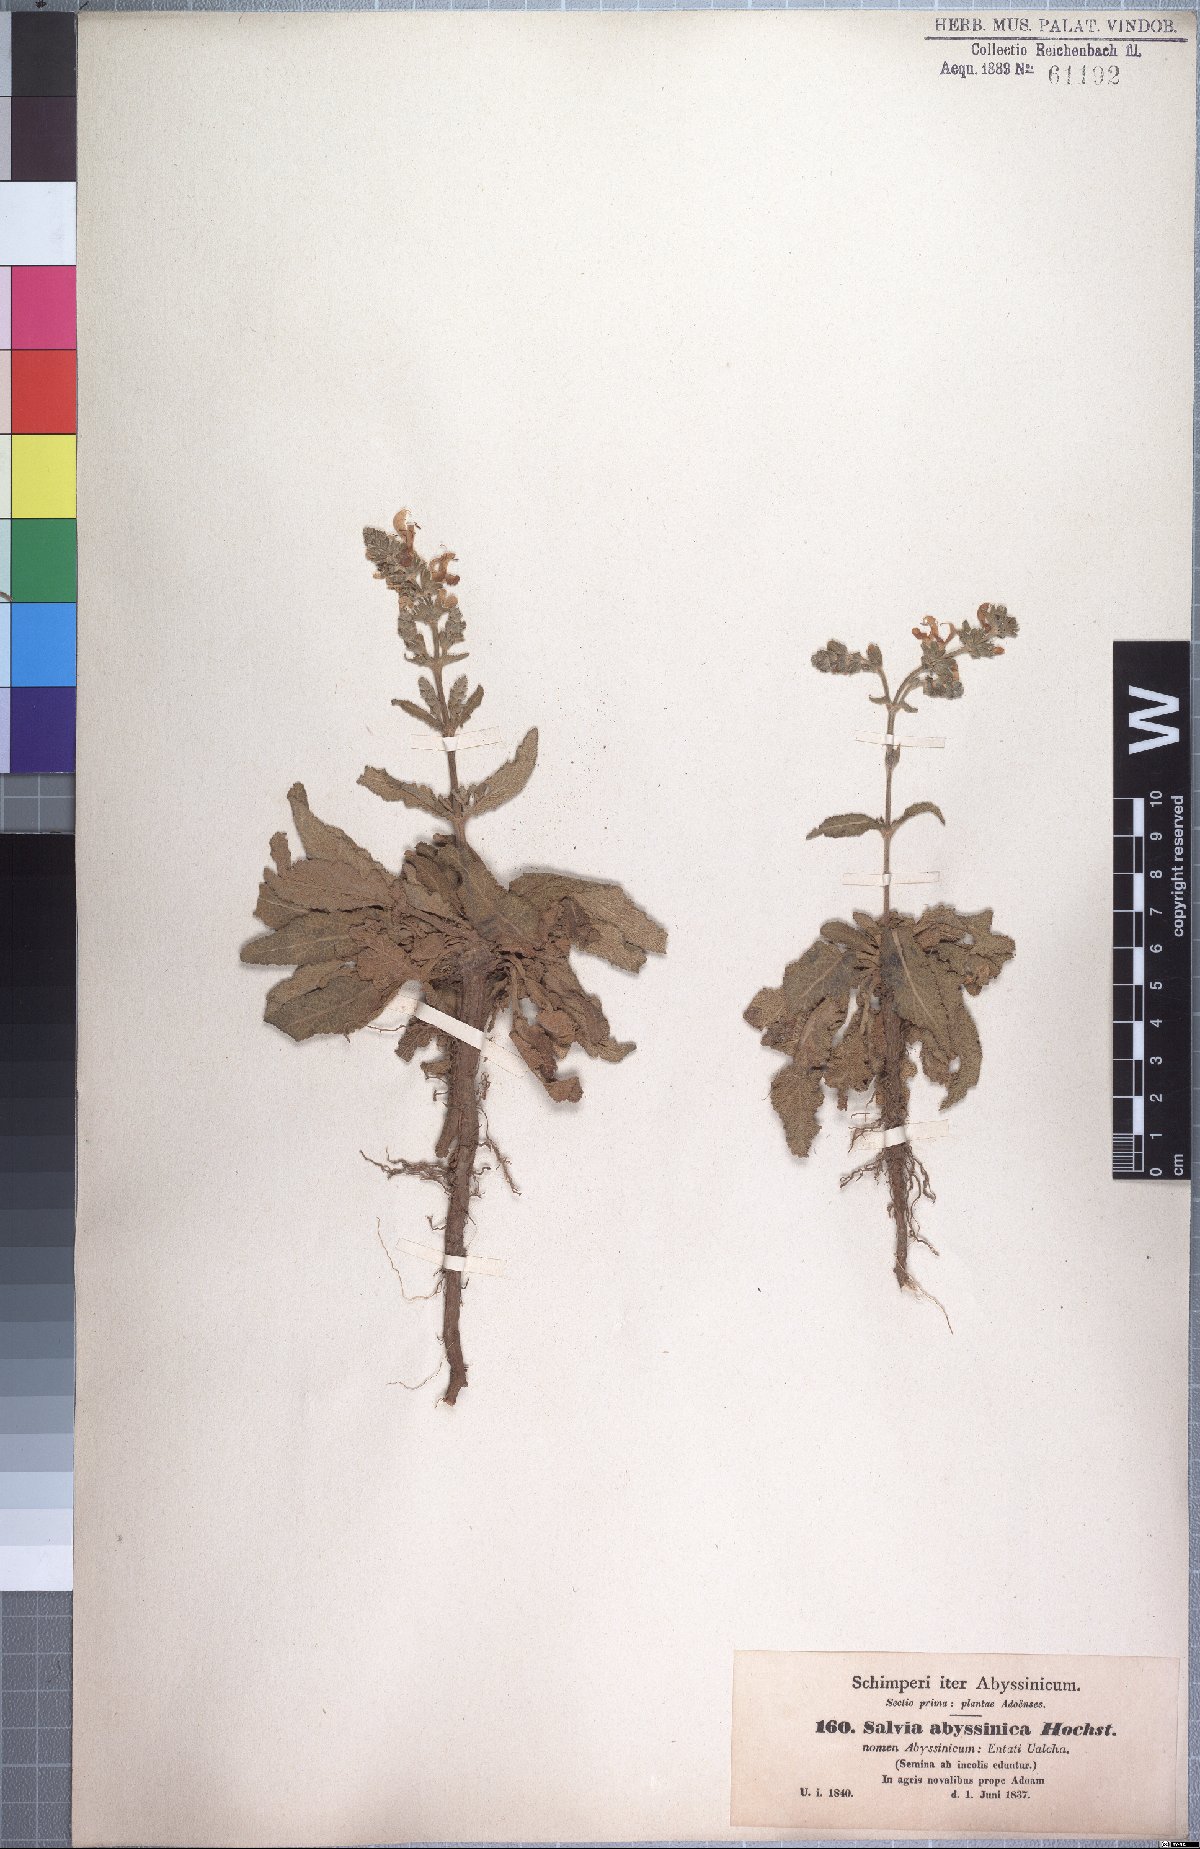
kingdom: Plantae
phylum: Tracheophyta
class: Magnoliopsida
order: Lamiales
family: Lamiaceae
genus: Salvia
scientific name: Salvia merjamie
